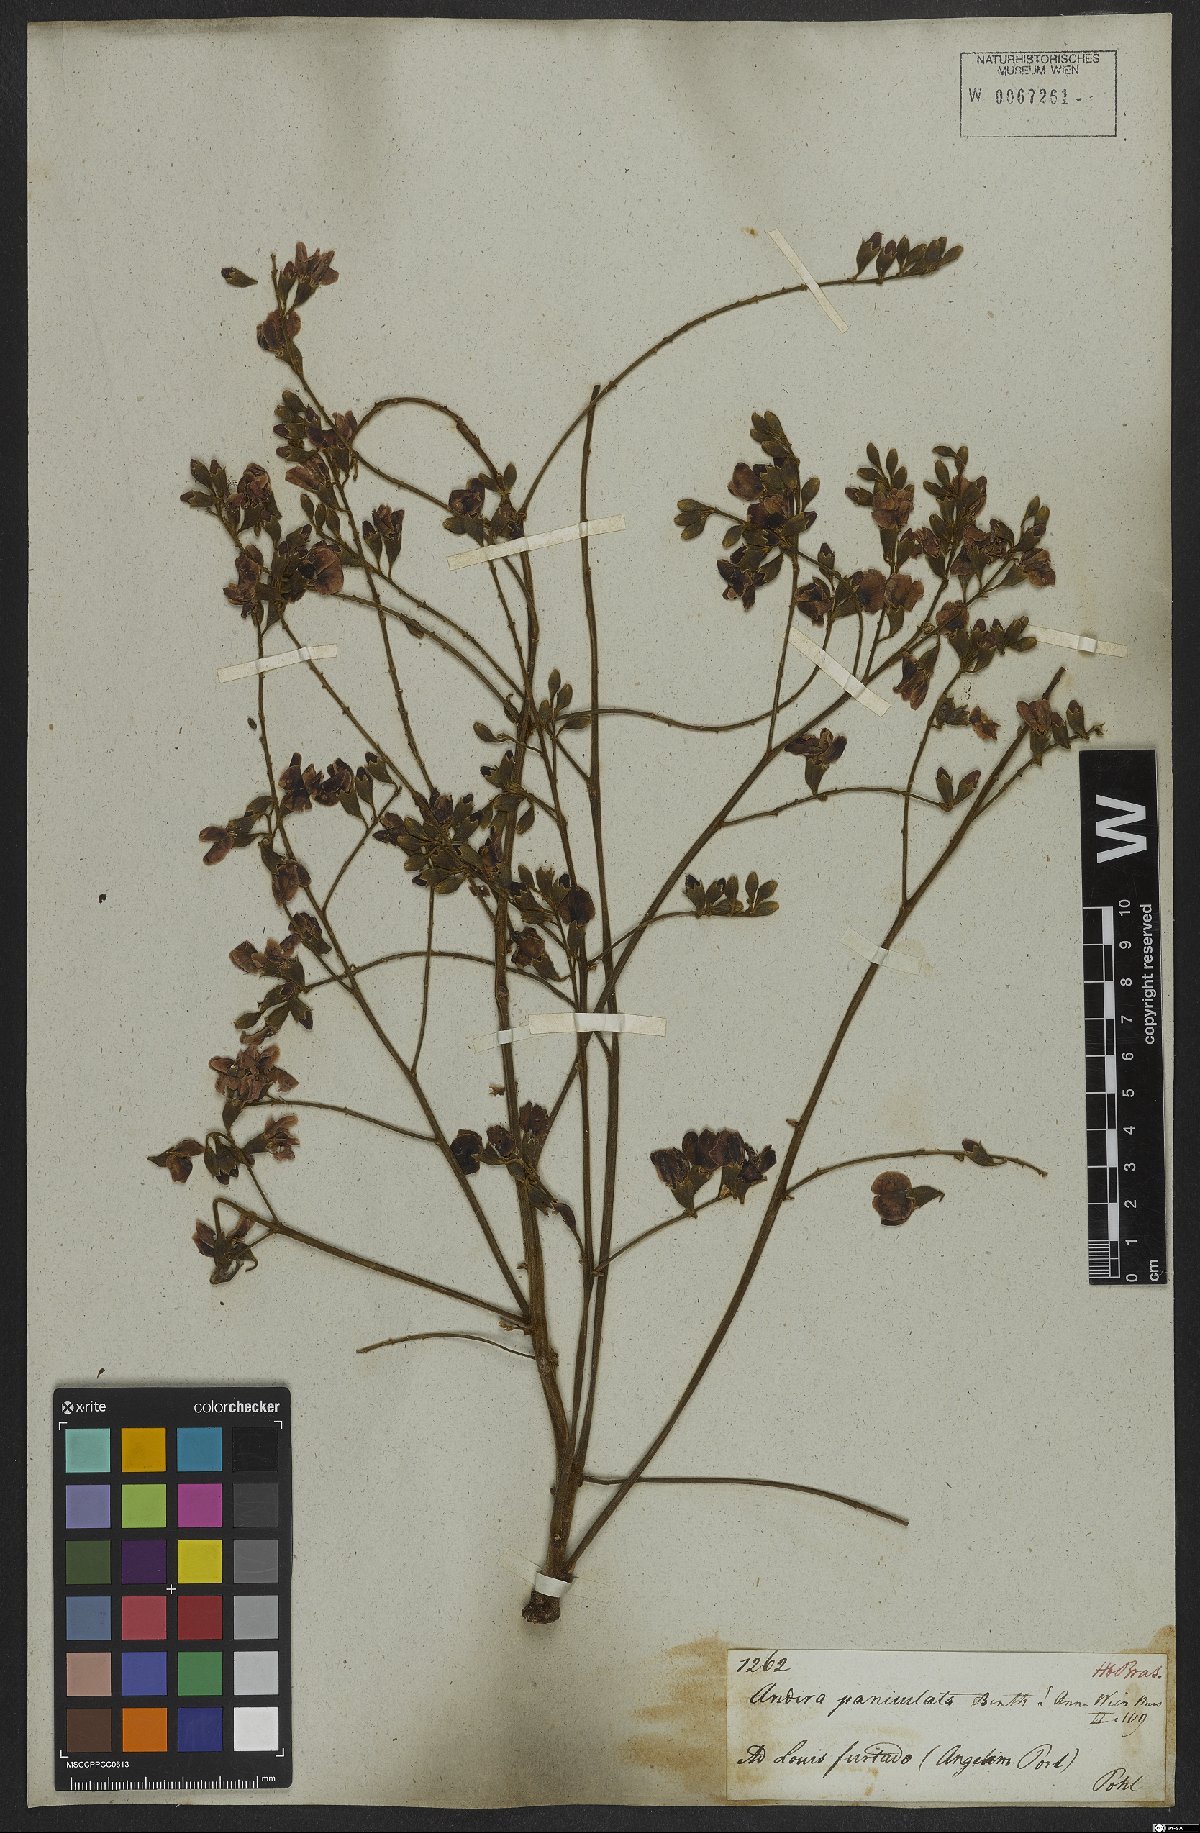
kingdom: Plantae
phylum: Tracheophyta
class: Magnoliopsida
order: Fabales
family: Fabaceae
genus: Andira
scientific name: Andira vermifuga
